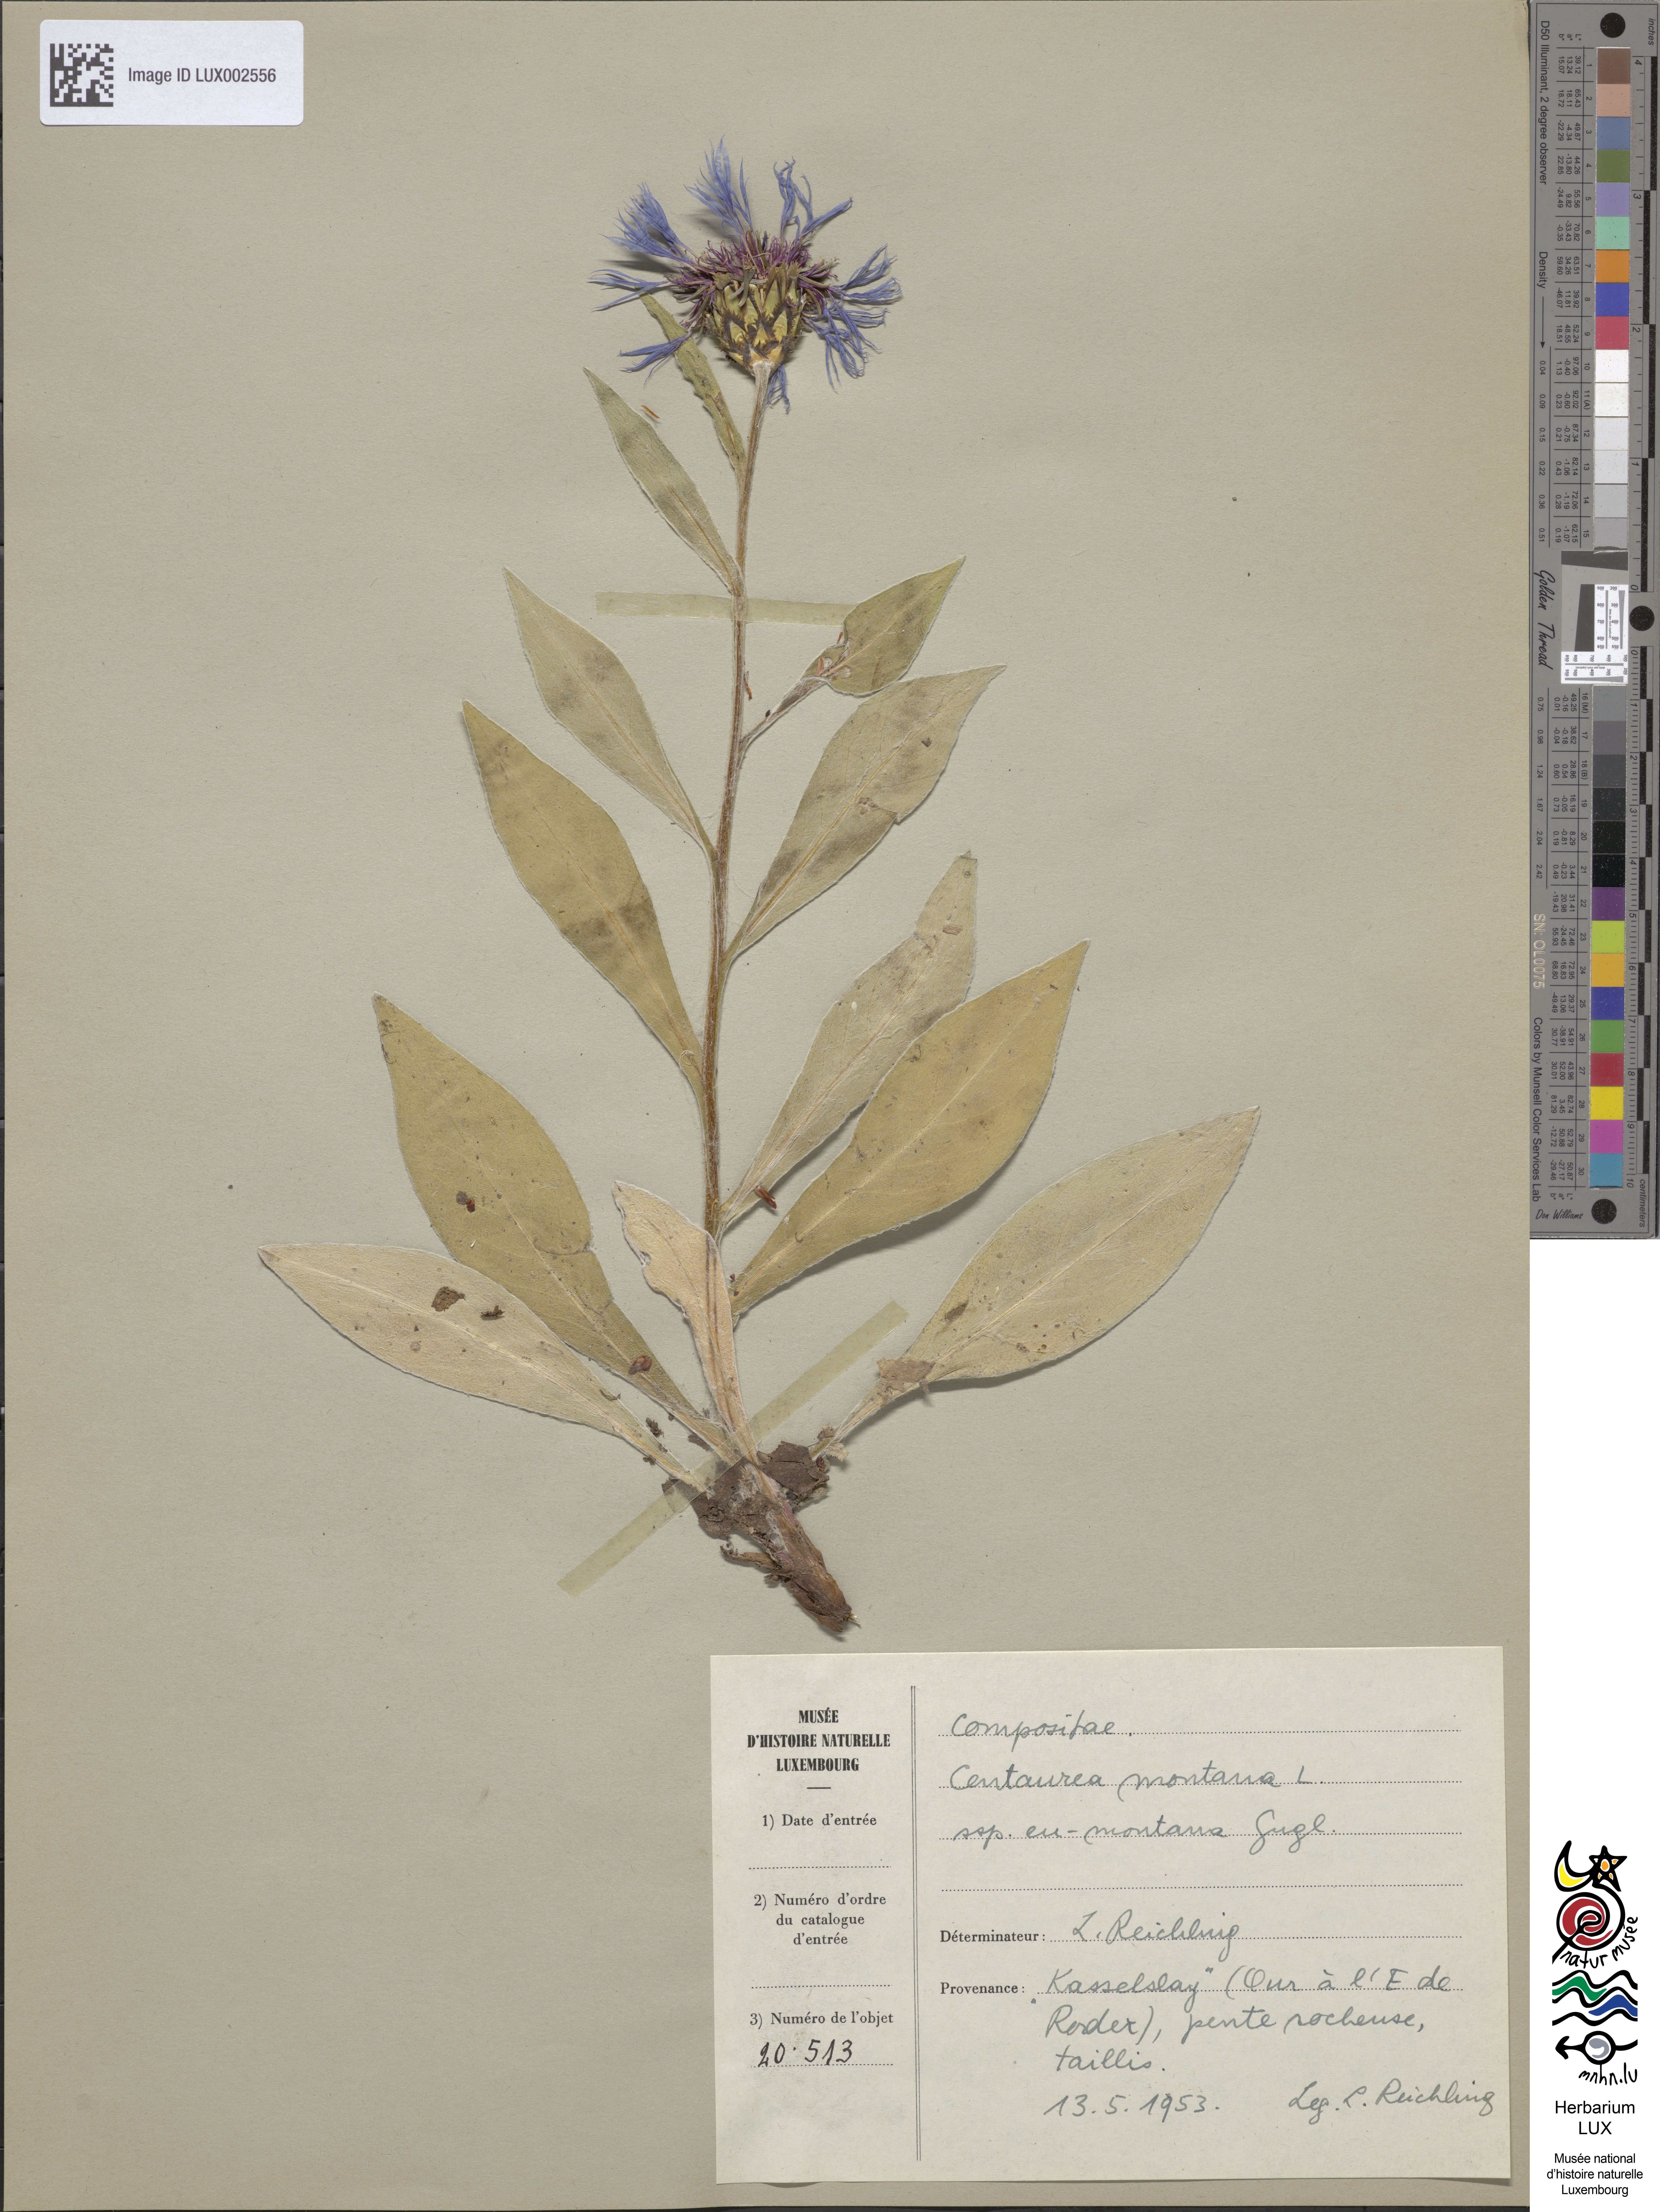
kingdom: Plantae
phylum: Tracheophyta
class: Magnoliopsida
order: Asterales
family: Asteraceae
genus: Centaurea
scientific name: Centaurea montana
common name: Perennial cornflower
